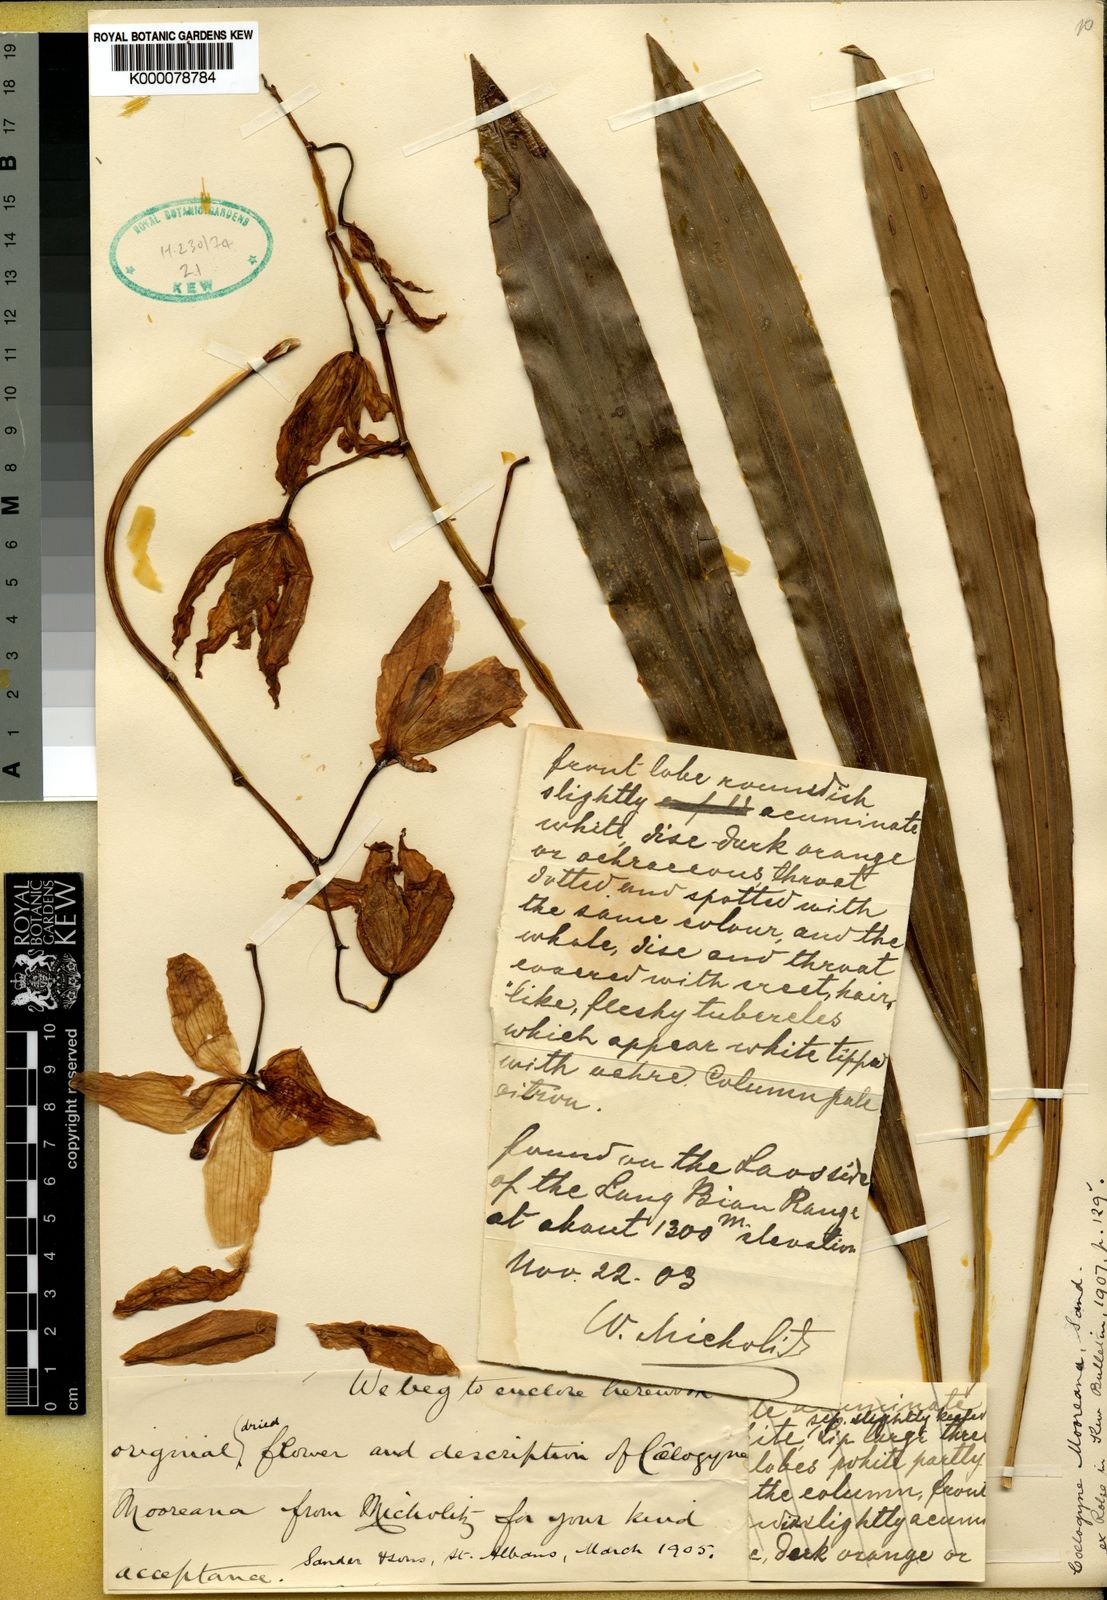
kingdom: Plantae
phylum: Tracheophyta
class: Liliopsida
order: Asparagales
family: Orchidaceae
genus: Coelogyne
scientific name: Coelogyne mooreana
